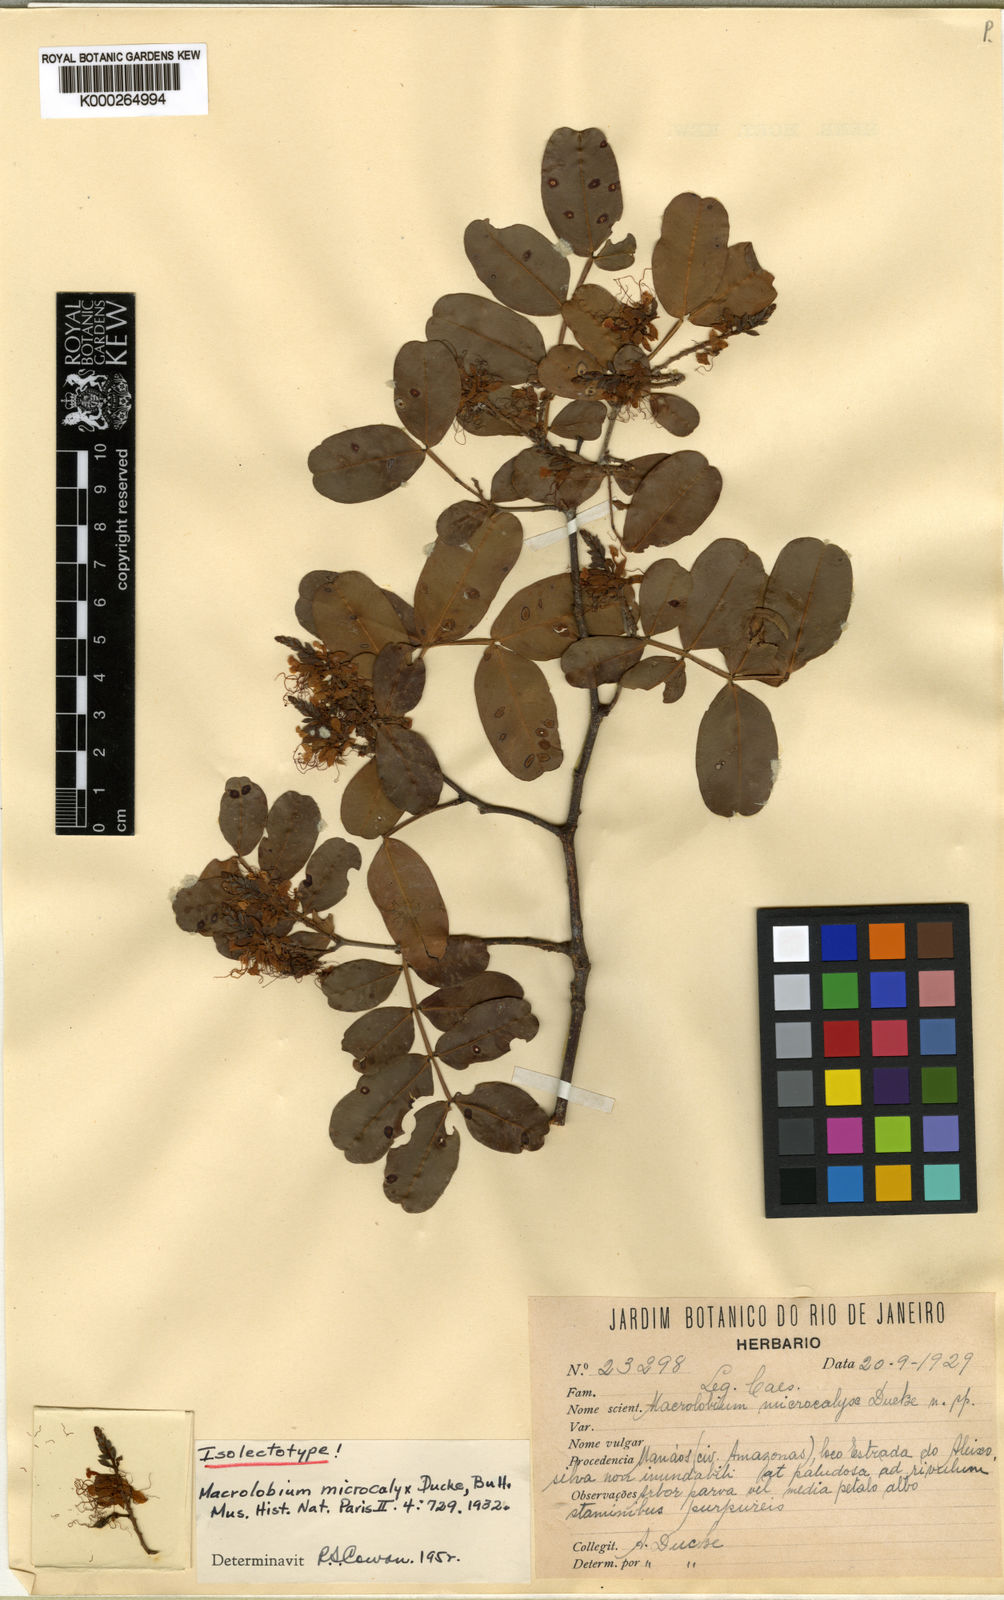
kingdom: Plantae
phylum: Tracheophyta
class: Magnoliopsida
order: Fabales
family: Fabaceae
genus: Macrolobium
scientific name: Macrolobium microcalyx
